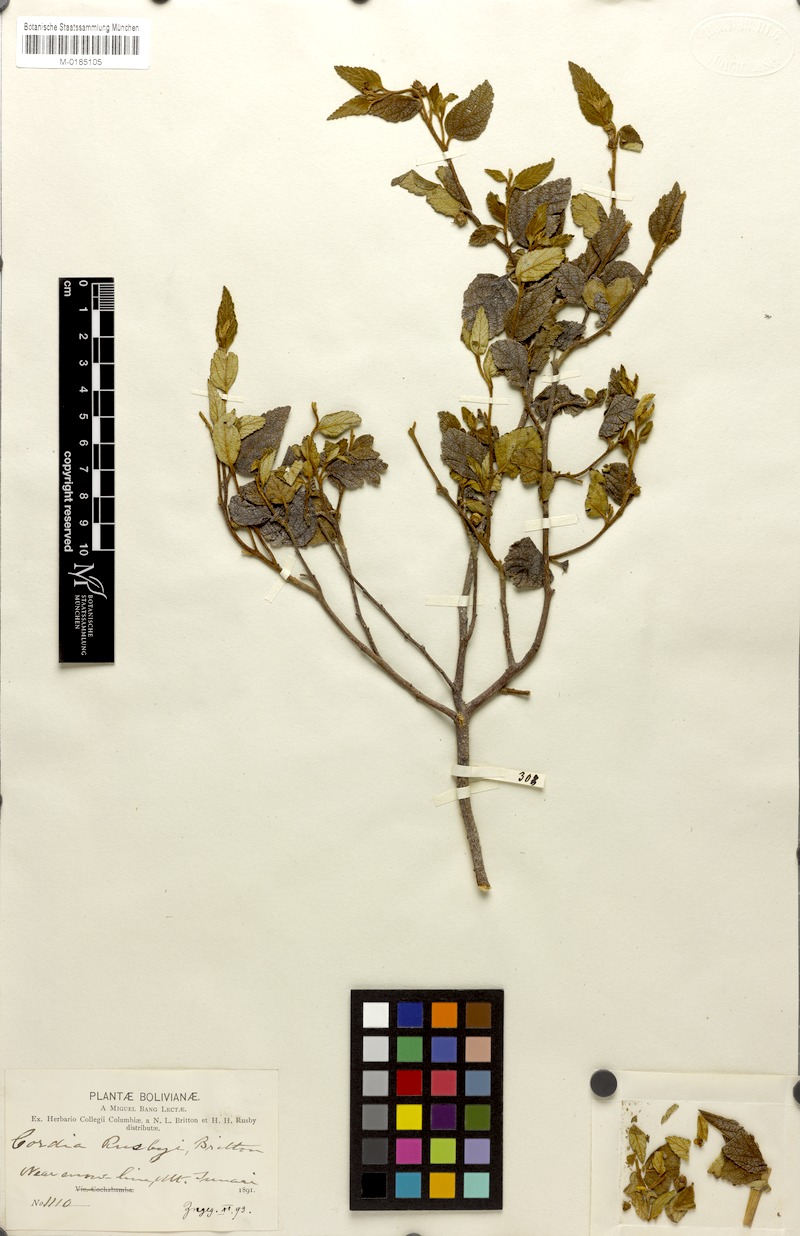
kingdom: Plantae
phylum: Tracheophyta
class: Magnoliopsida
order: Boraginales
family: Cordiaceae
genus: Cordia
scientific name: Cordia alliodora
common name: Spanish elm
